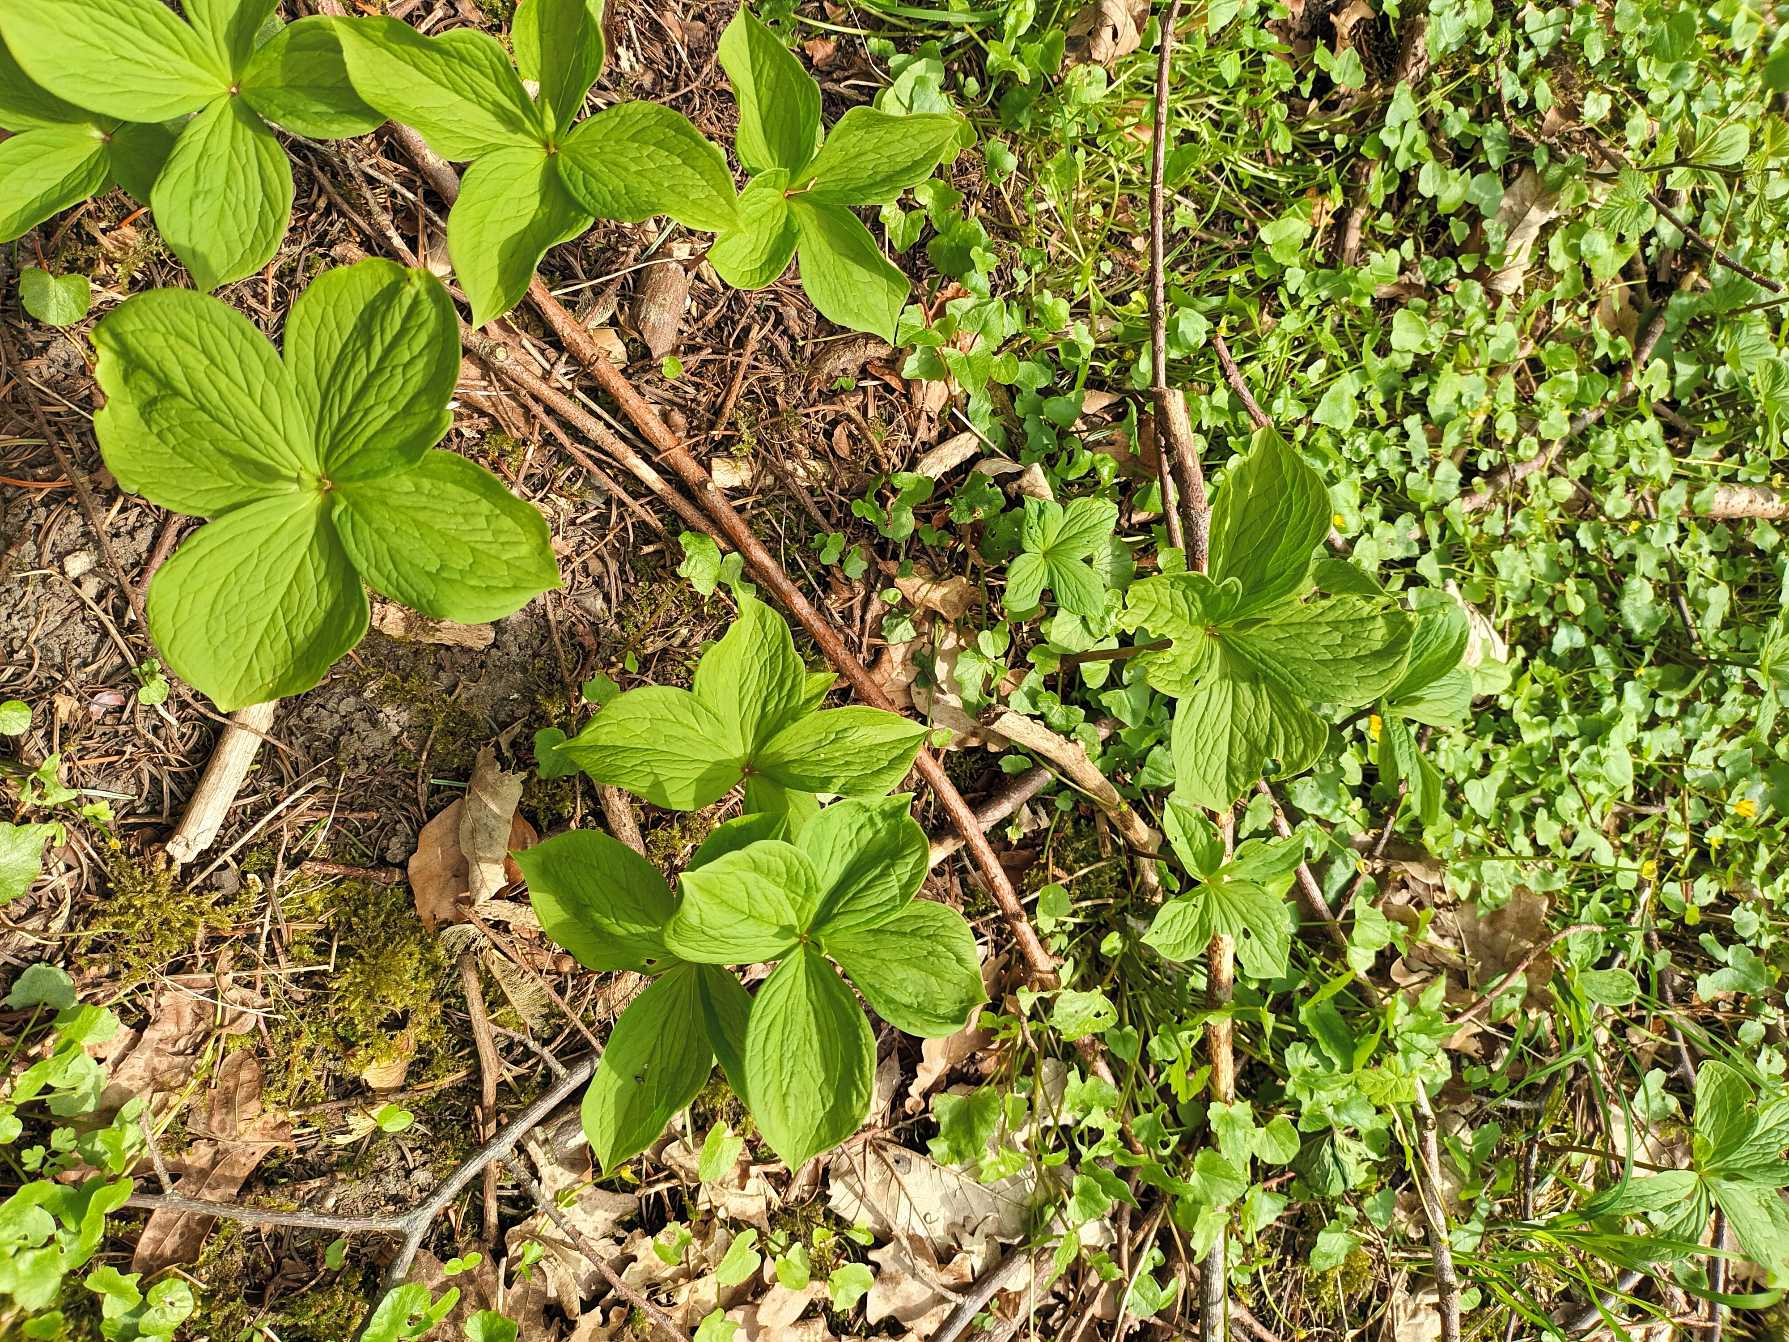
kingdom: Plantae
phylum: Tracheophyta
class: Liliopsida
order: Liliales
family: Melanthiaceae
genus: Paris
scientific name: Paris quadrifolia
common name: Firblad
